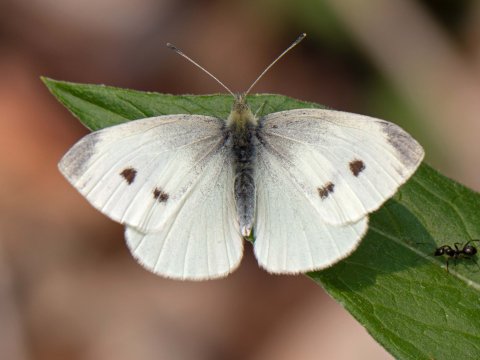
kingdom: Animalia
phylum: Arthropoda
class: Insecta
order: Lepidoptera
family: Pieridae
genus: Pieris
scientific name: Pieris rapae
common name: Cabbage White
